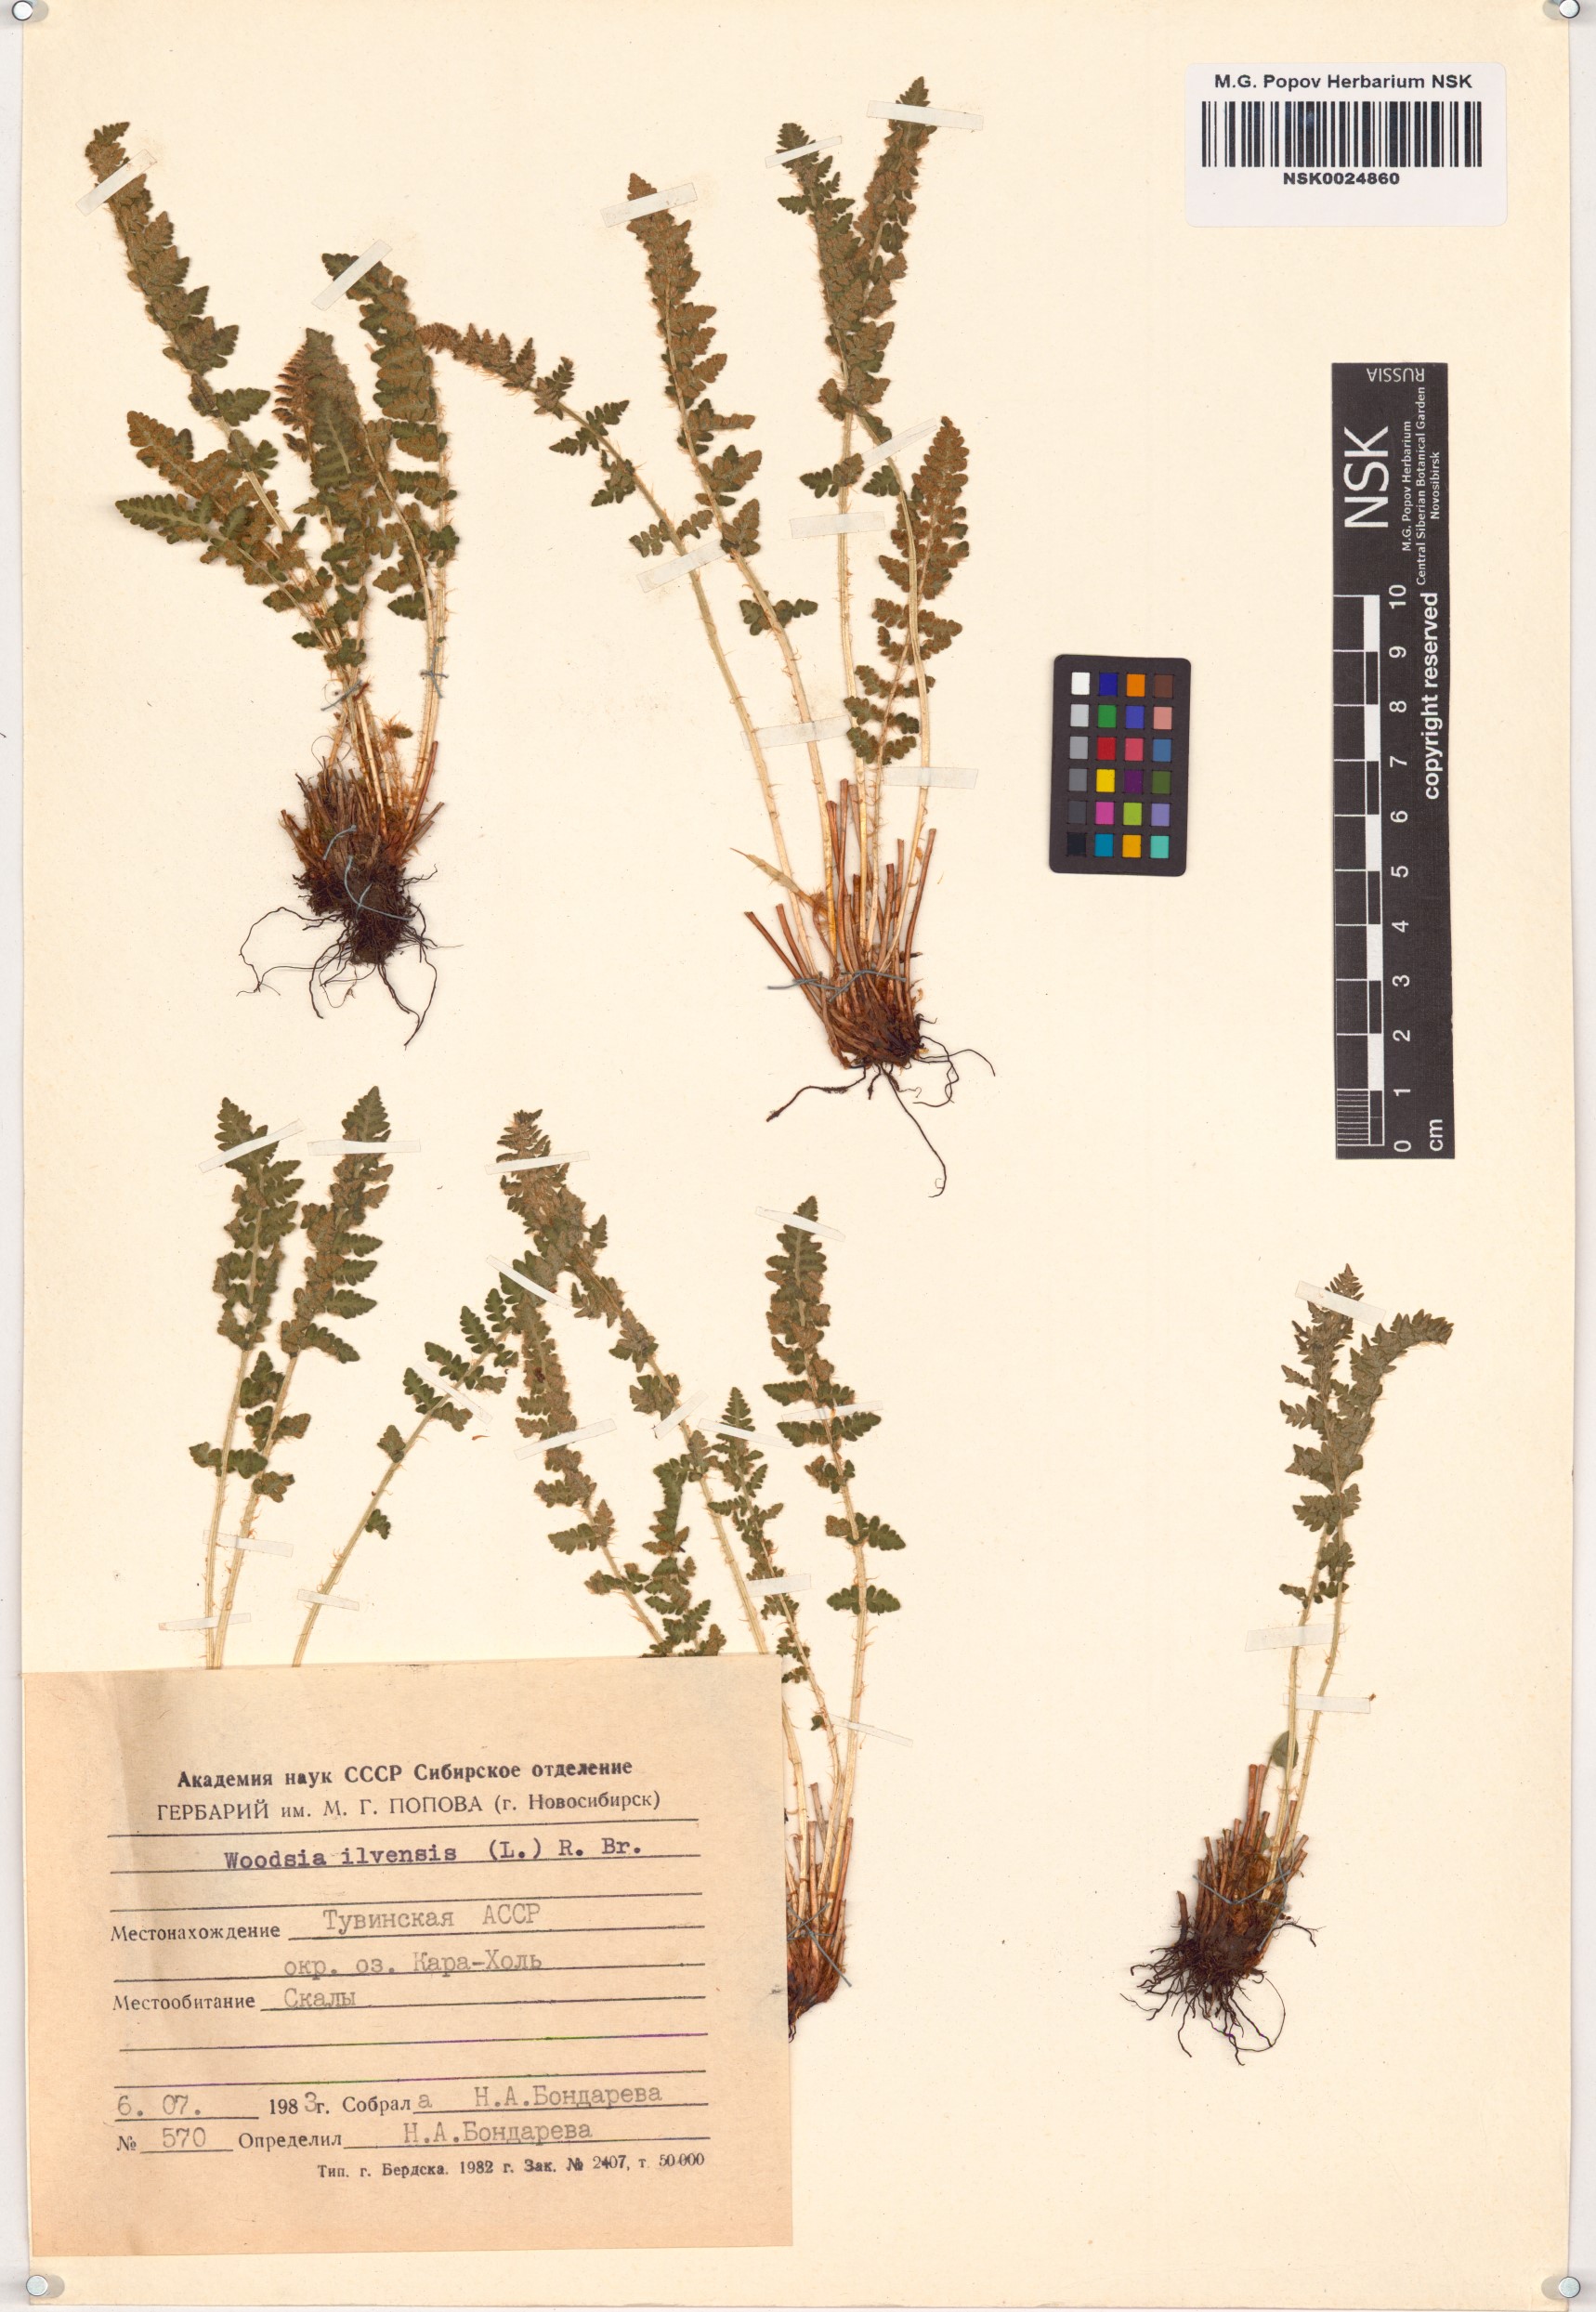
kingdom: Plantae
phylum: Tracheophyta
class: Polypodiopsida
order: Polypodiales
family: Woodsiaceae
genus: Woodsia
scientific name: Woodsia ilvensis
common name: Fragrant woodsia
